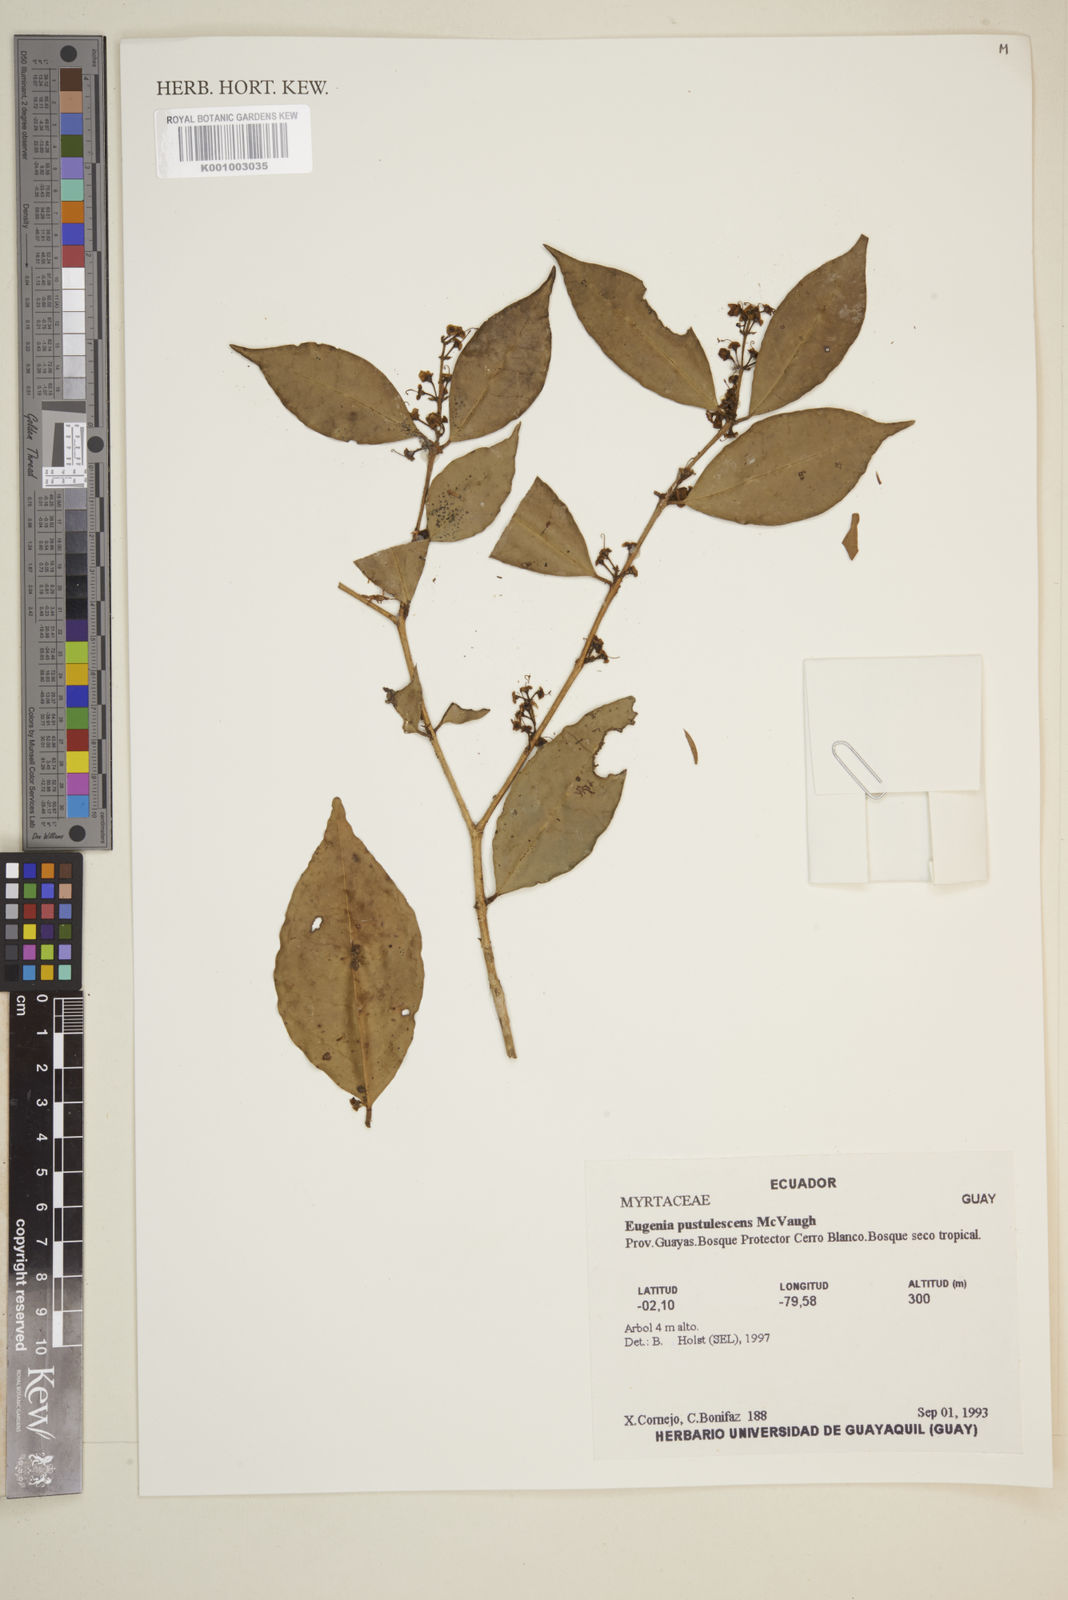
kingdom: Plantae
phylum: Tracheophyta
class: Magnoliopsida
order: Myrtales
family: Myrtaceae
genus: Eugenia
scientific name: Eugenia pustulescens
